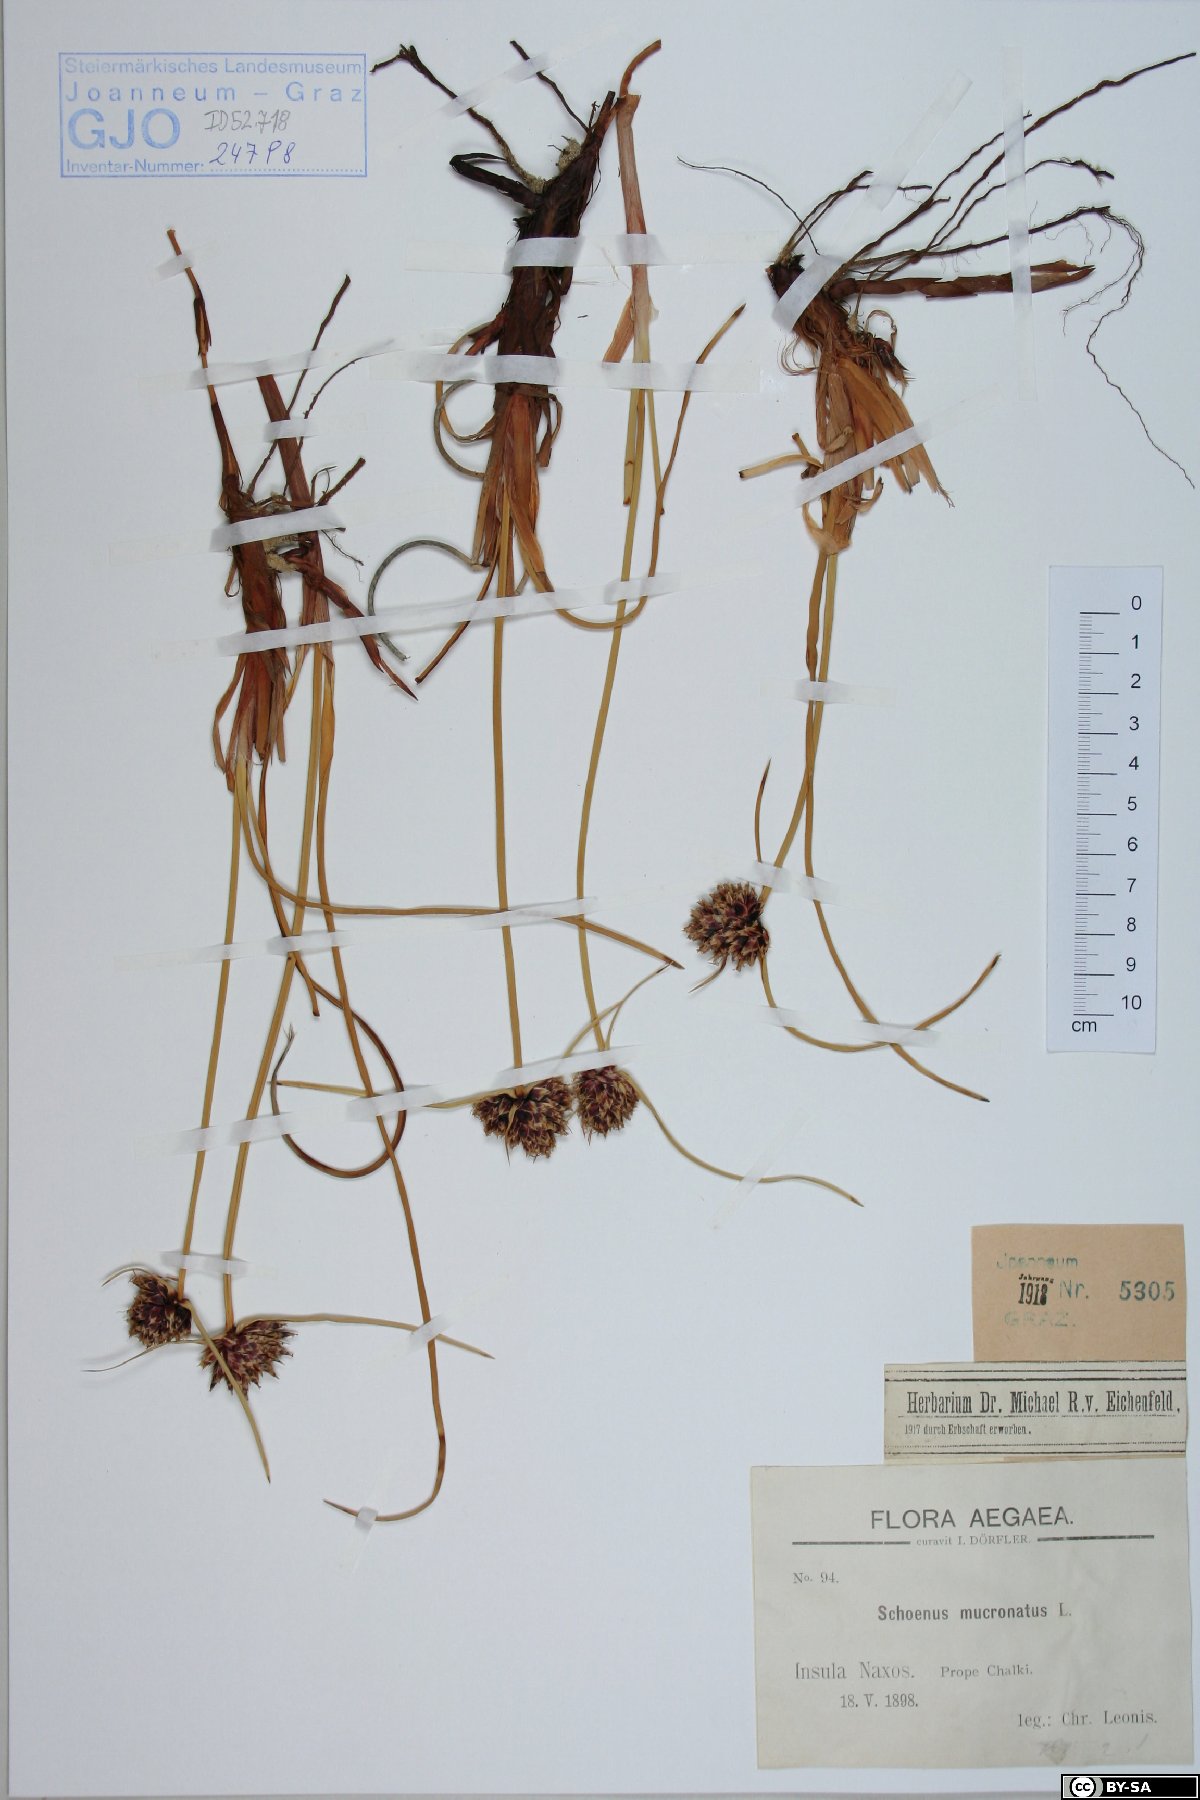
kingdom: Plantae
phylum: Tracheophyta
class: Liliopsida
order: Poales
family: Cyperaceae
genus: Cyperus
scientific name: Cyperus capitatus
